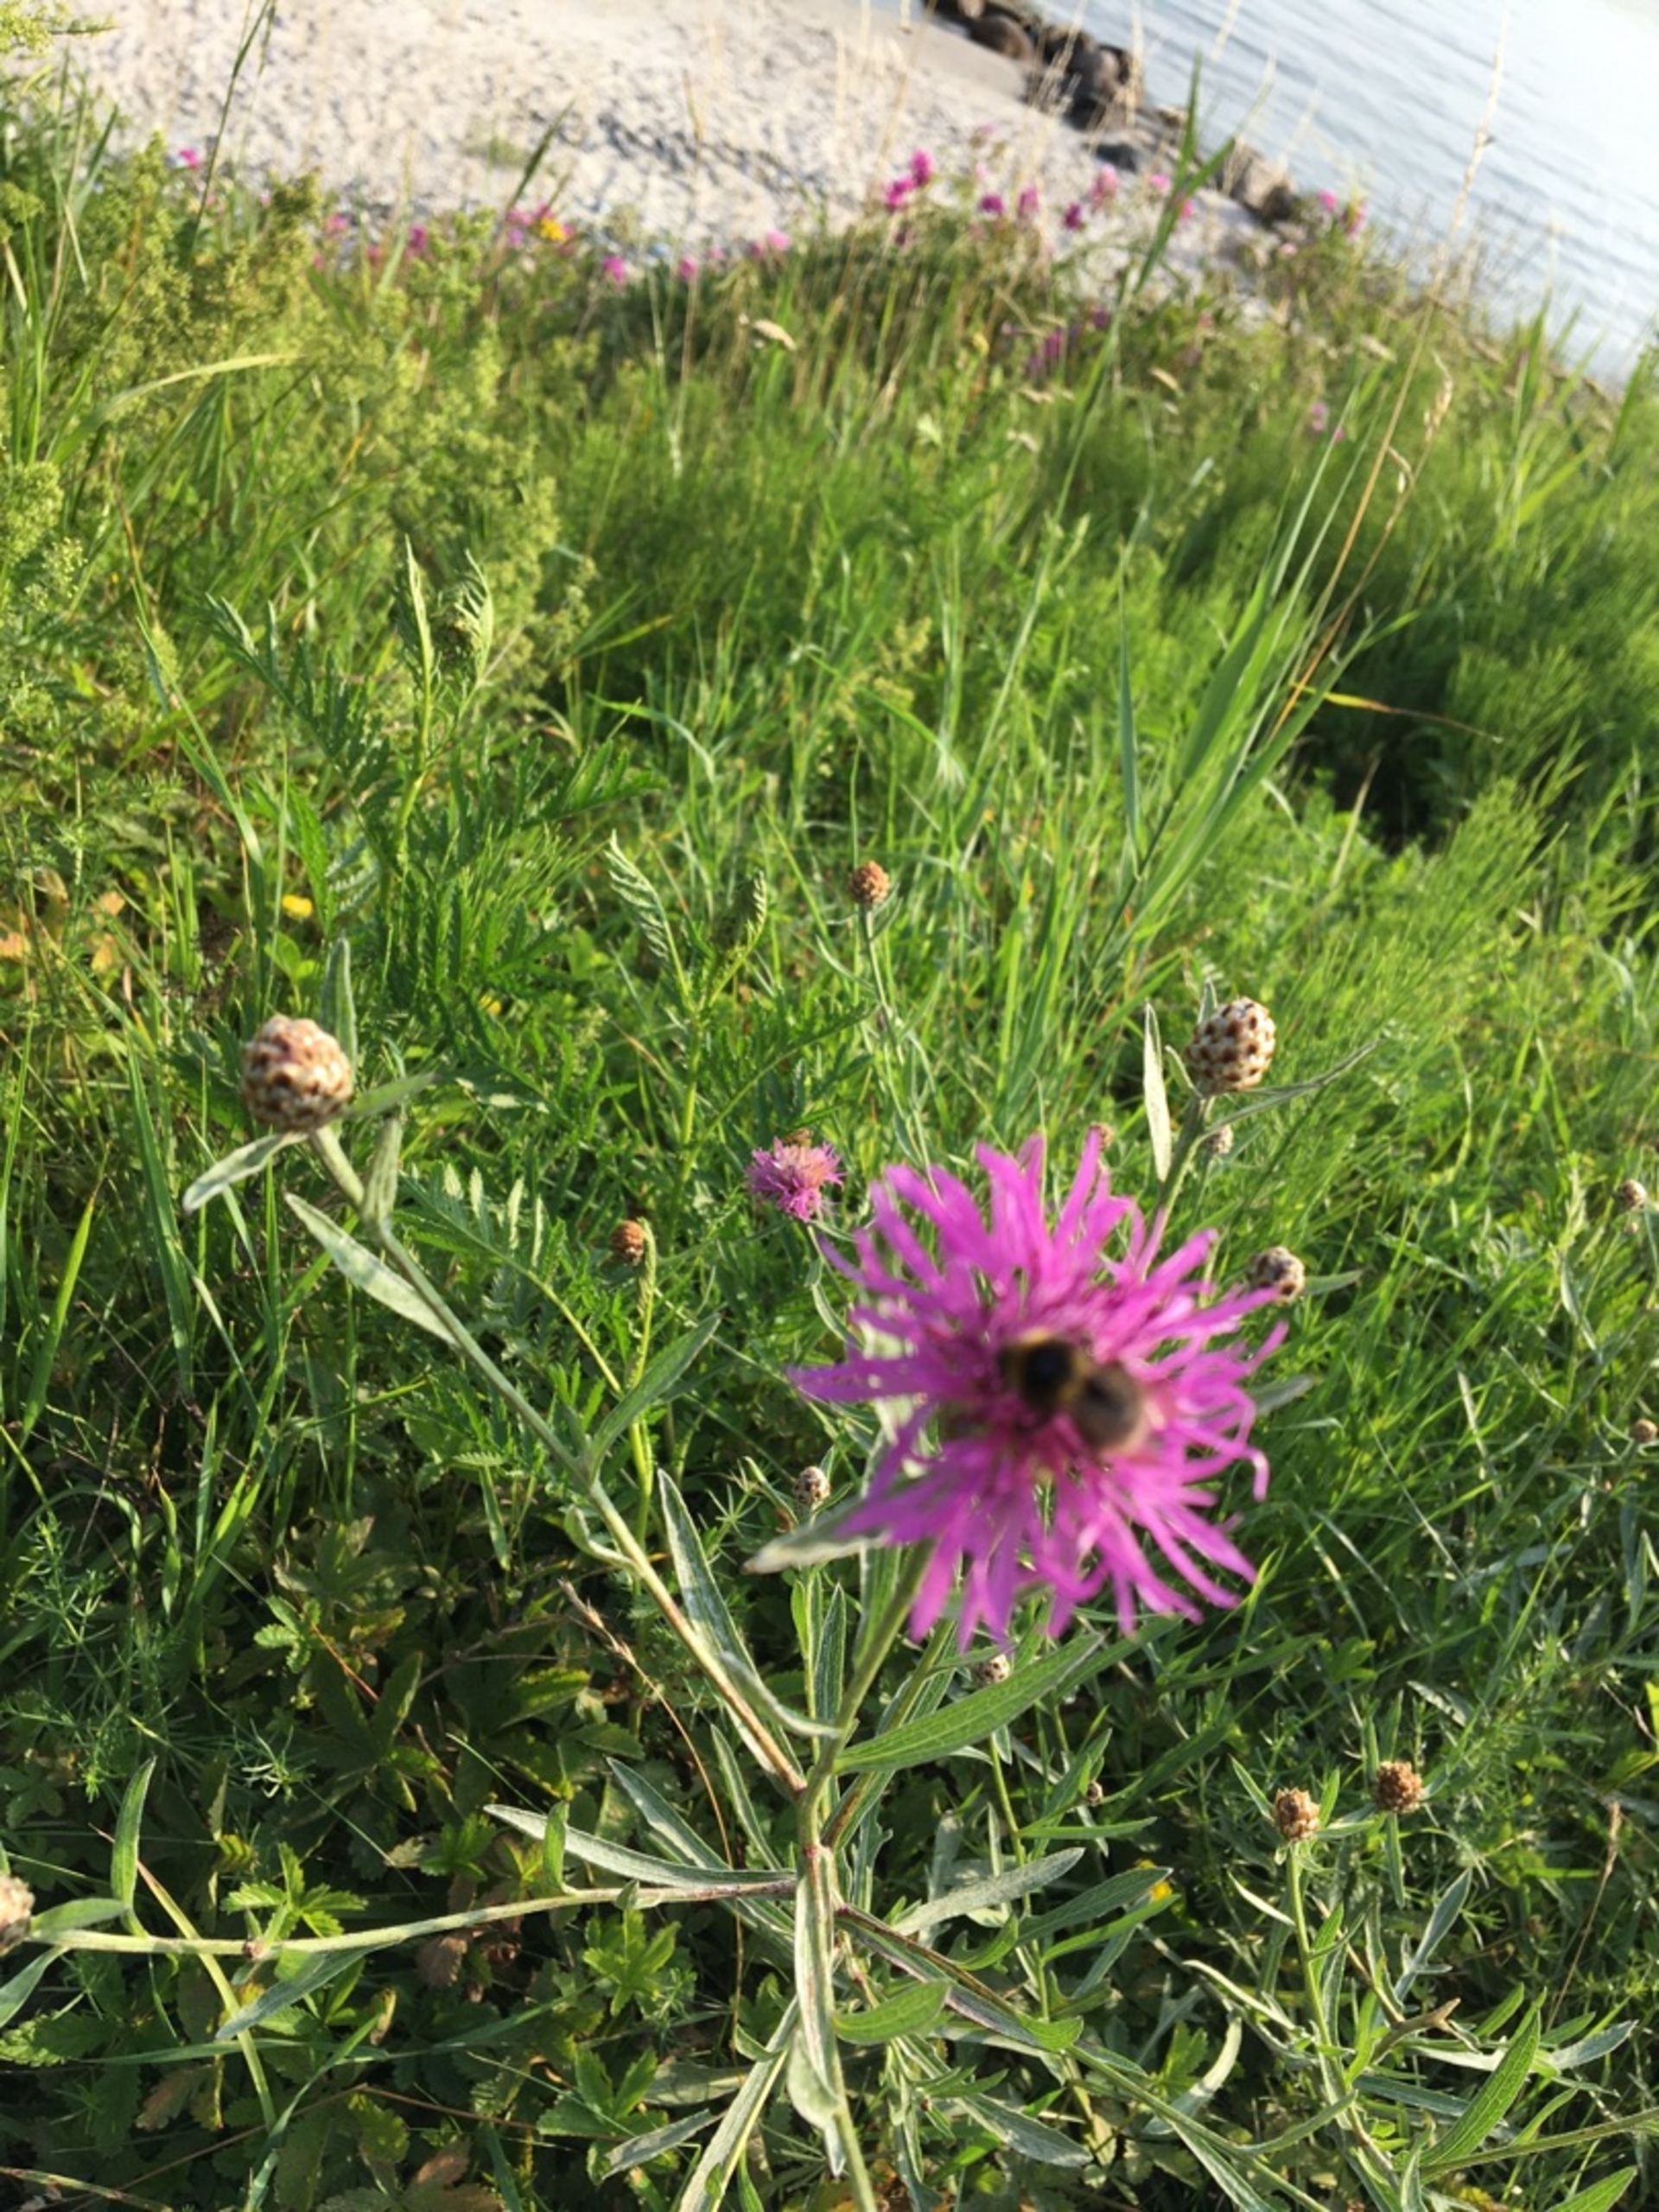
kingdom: Plantae
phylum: Tracheophyta
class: Magnoliopsida
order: Asterales
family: Asteraceae
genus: Centaurea
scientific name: Centaurea jacea
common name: Almindelig knopurt
